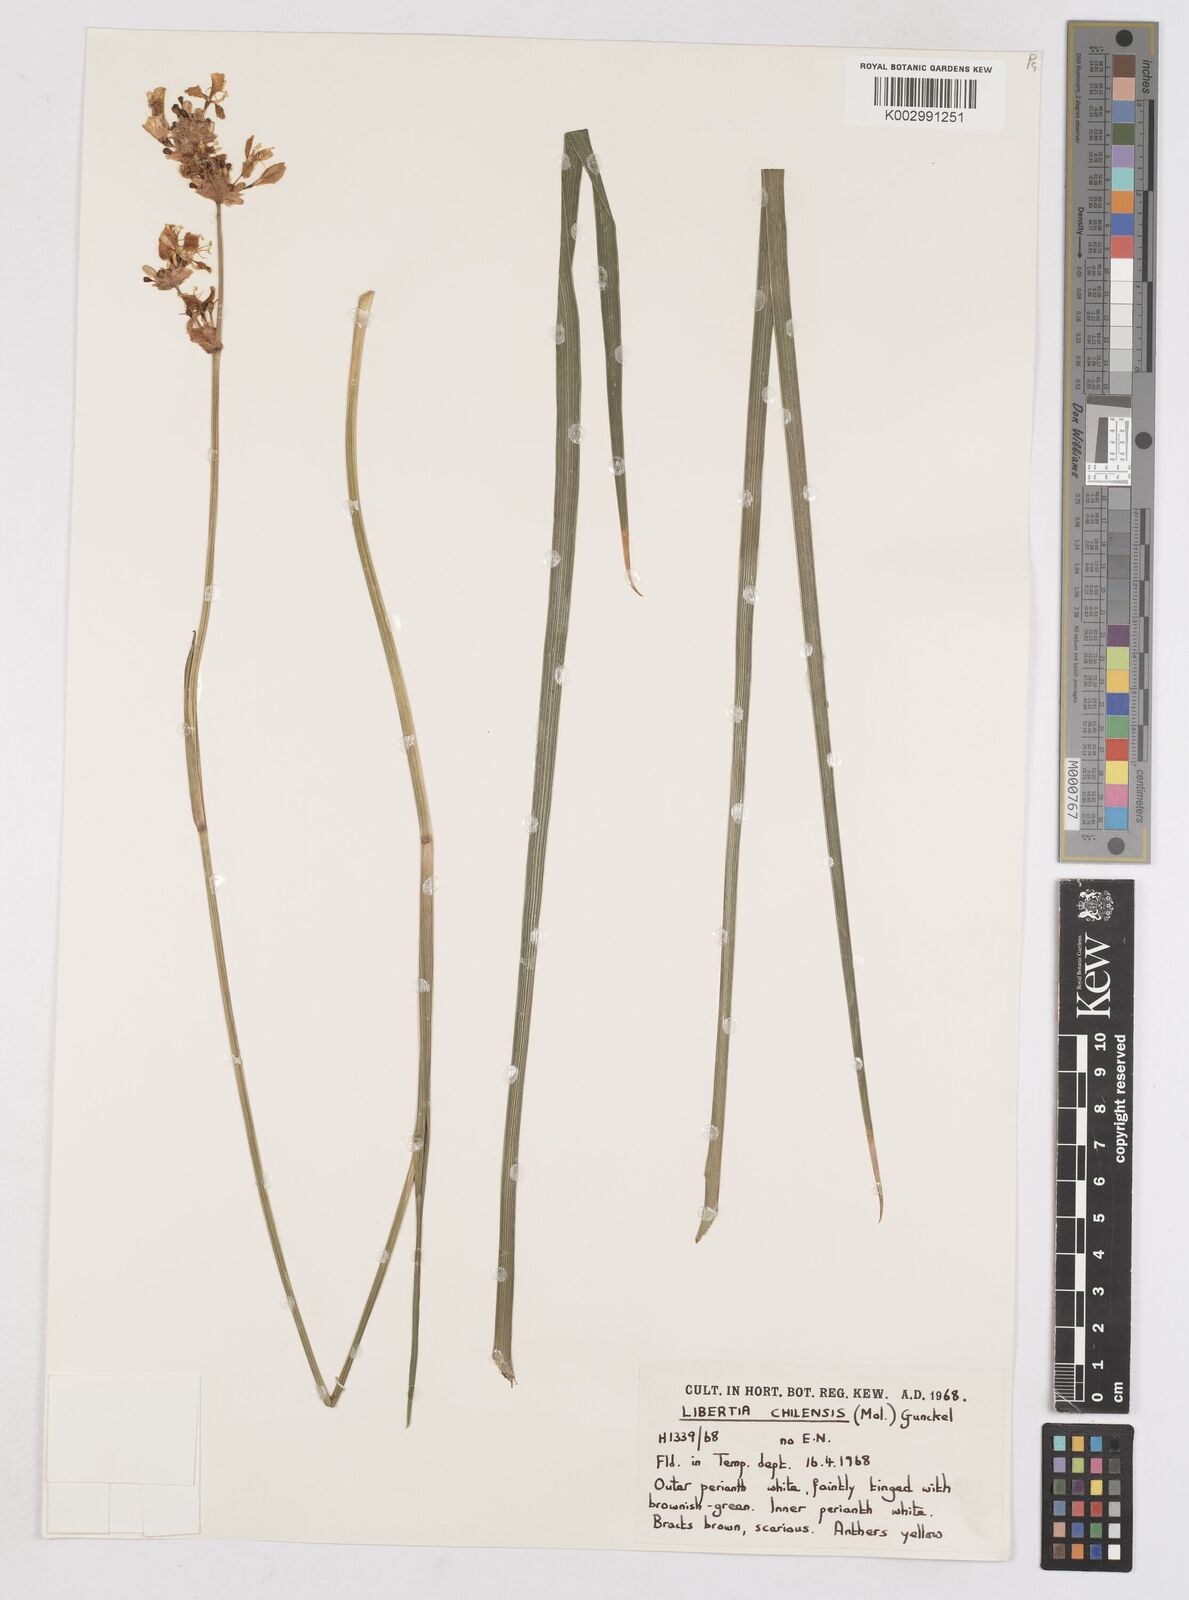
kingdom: Plantae
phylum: Tracheophyta
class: Liliopsida
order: Asparagales
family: Iridaceae
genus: Libertia
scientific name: Libertia chilensis
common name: Satin flower
